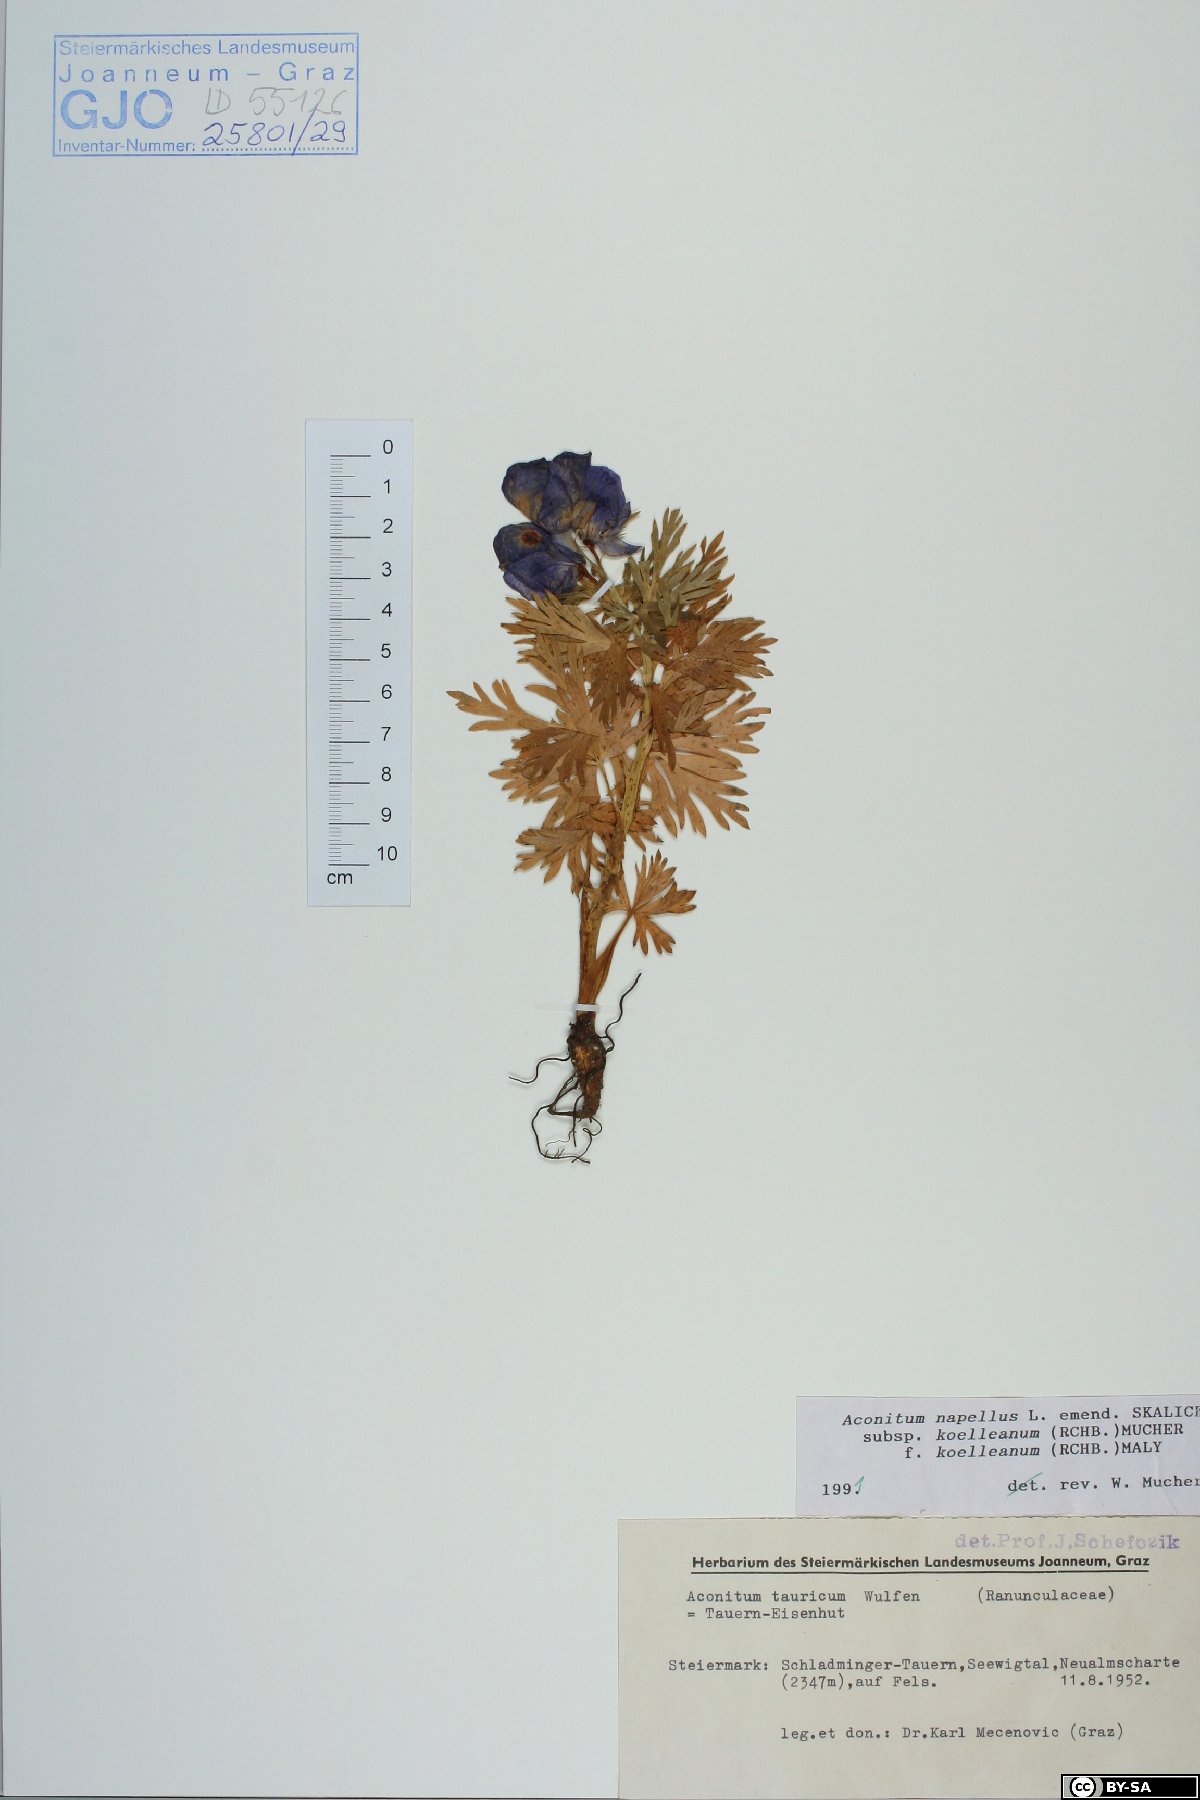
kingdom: Plantae
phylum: Tracheophyta
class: Magnoliopsida
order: Ranunculales
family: Ranunculaceae
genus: Aconitum
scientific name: Aconitum tauricum
